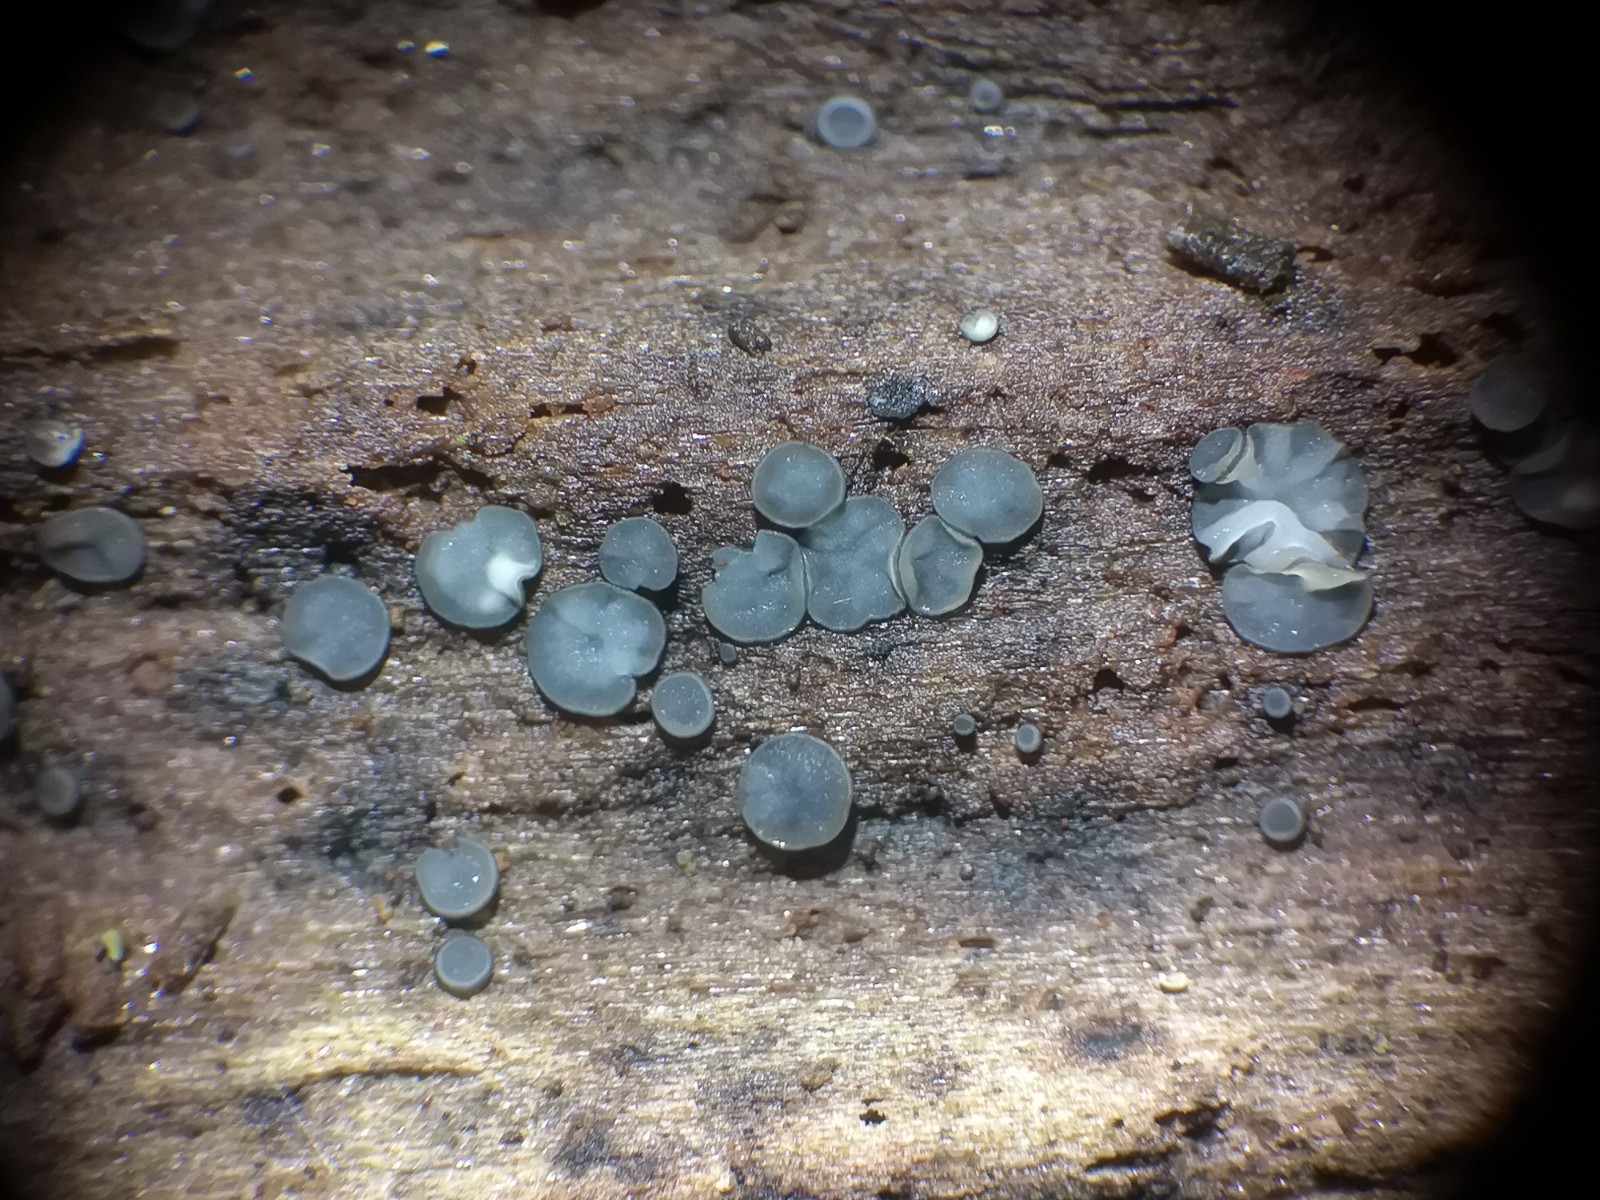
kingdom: Fungi
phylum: Ascomycota
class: Leotiomycetes
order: Helotiales
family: Mollisiaceae
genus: Mollisia
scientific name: Mollisia cinerea
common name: almindelig gråskive
